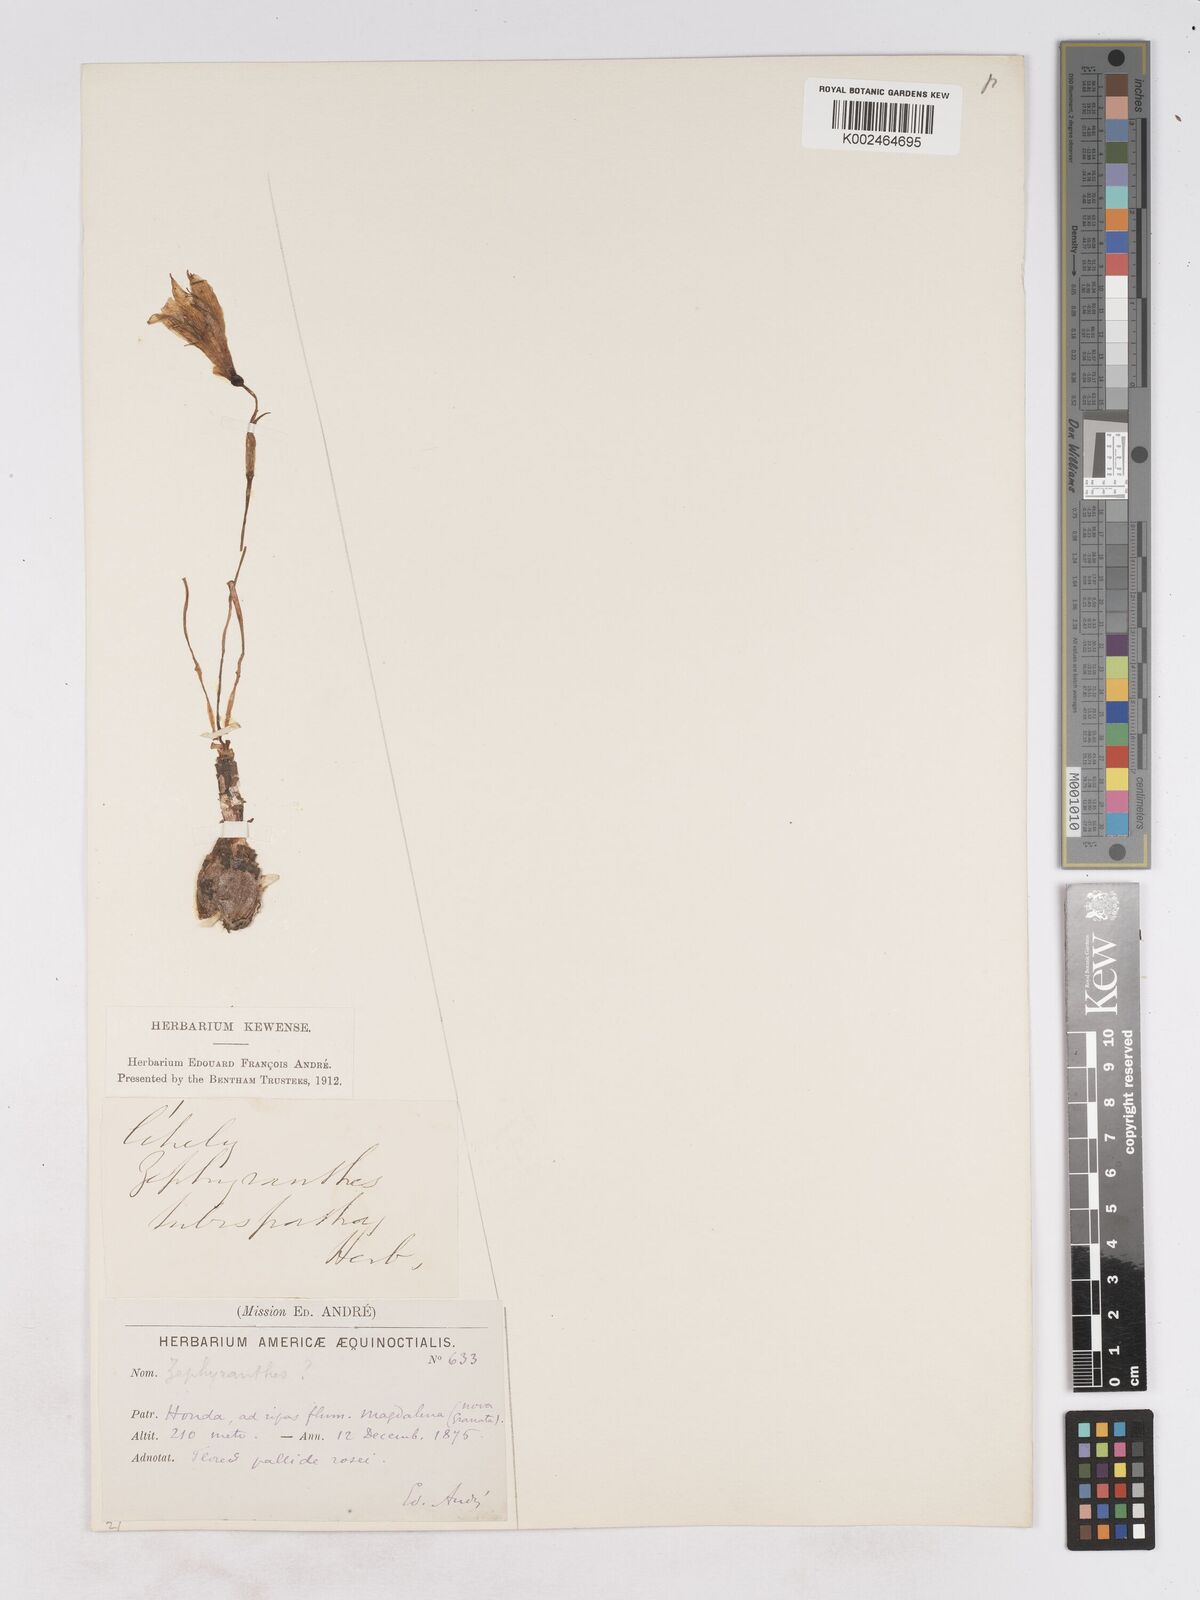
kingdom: Plantae
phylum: Tracheophyta
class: Liliopsida
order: Asparagales
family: Amaryllidaceae
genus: Zephyranthes
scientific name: Zephyranthes
